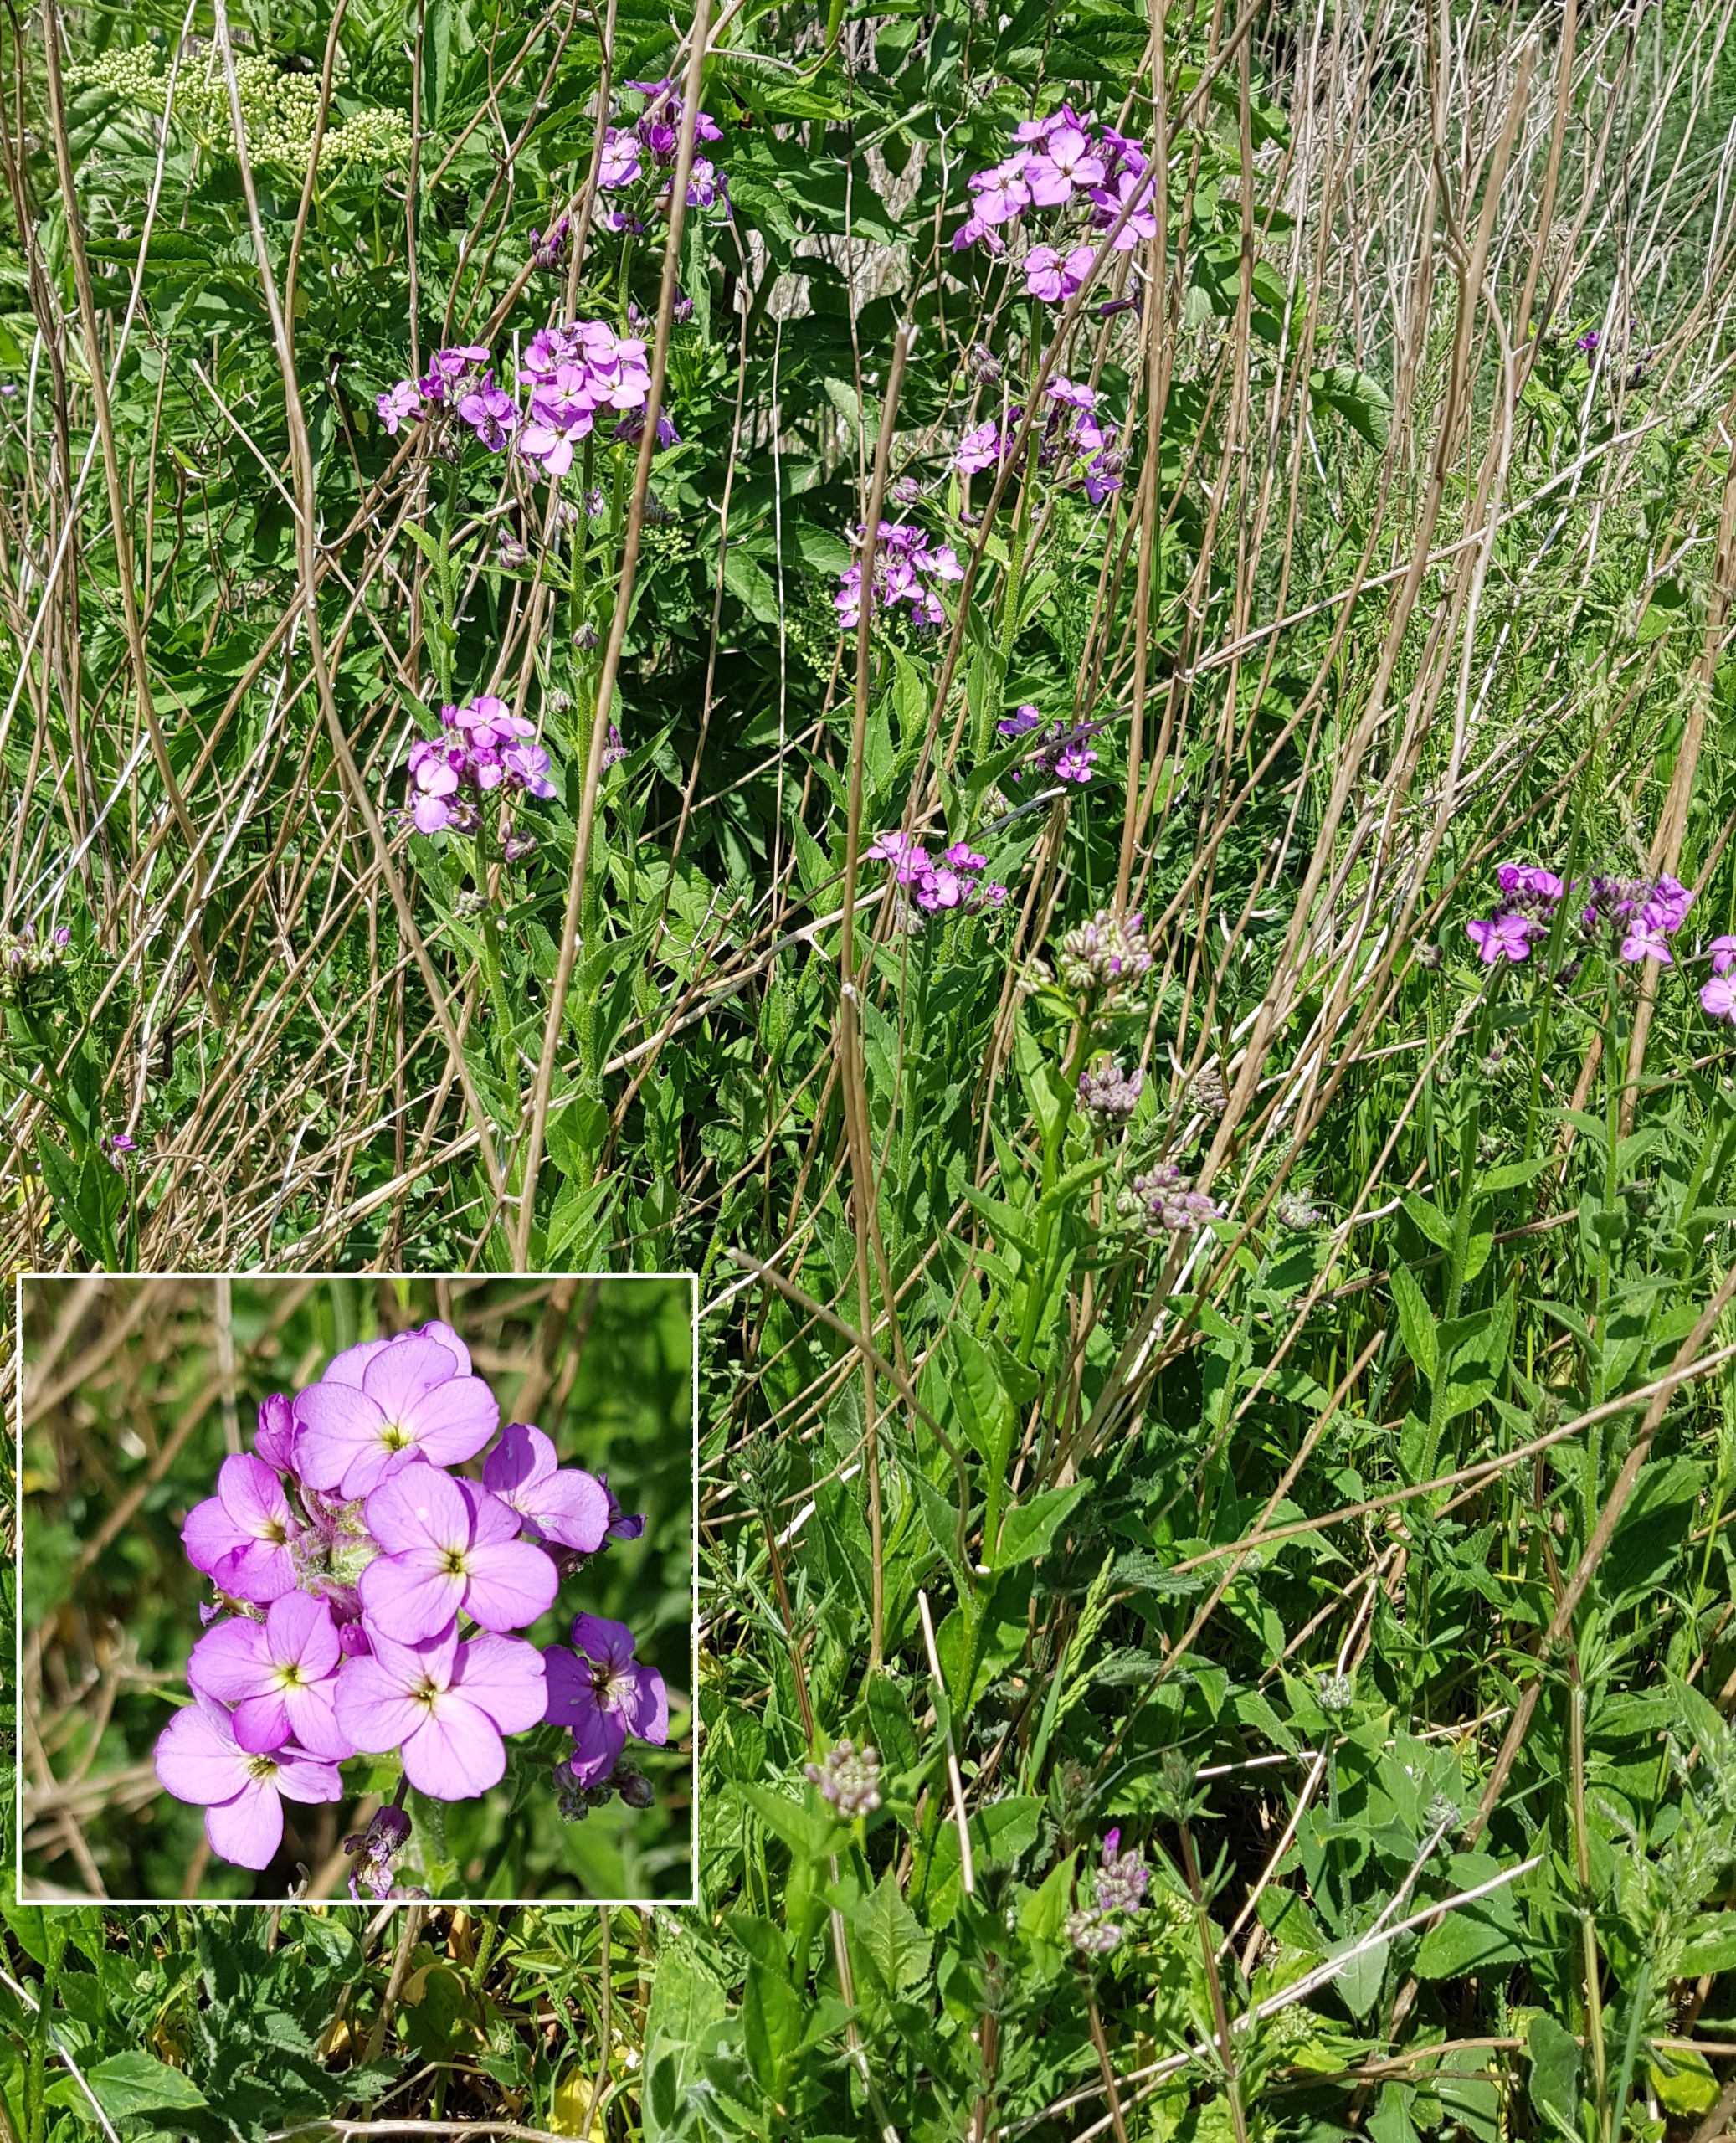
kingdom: Plantae
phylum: Tracheophyta
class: Magnoliopsida
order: Brassicales
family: Brassicaceae
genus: Hesperis
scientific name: Hesperis matronalis
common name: Aftenstjerne
